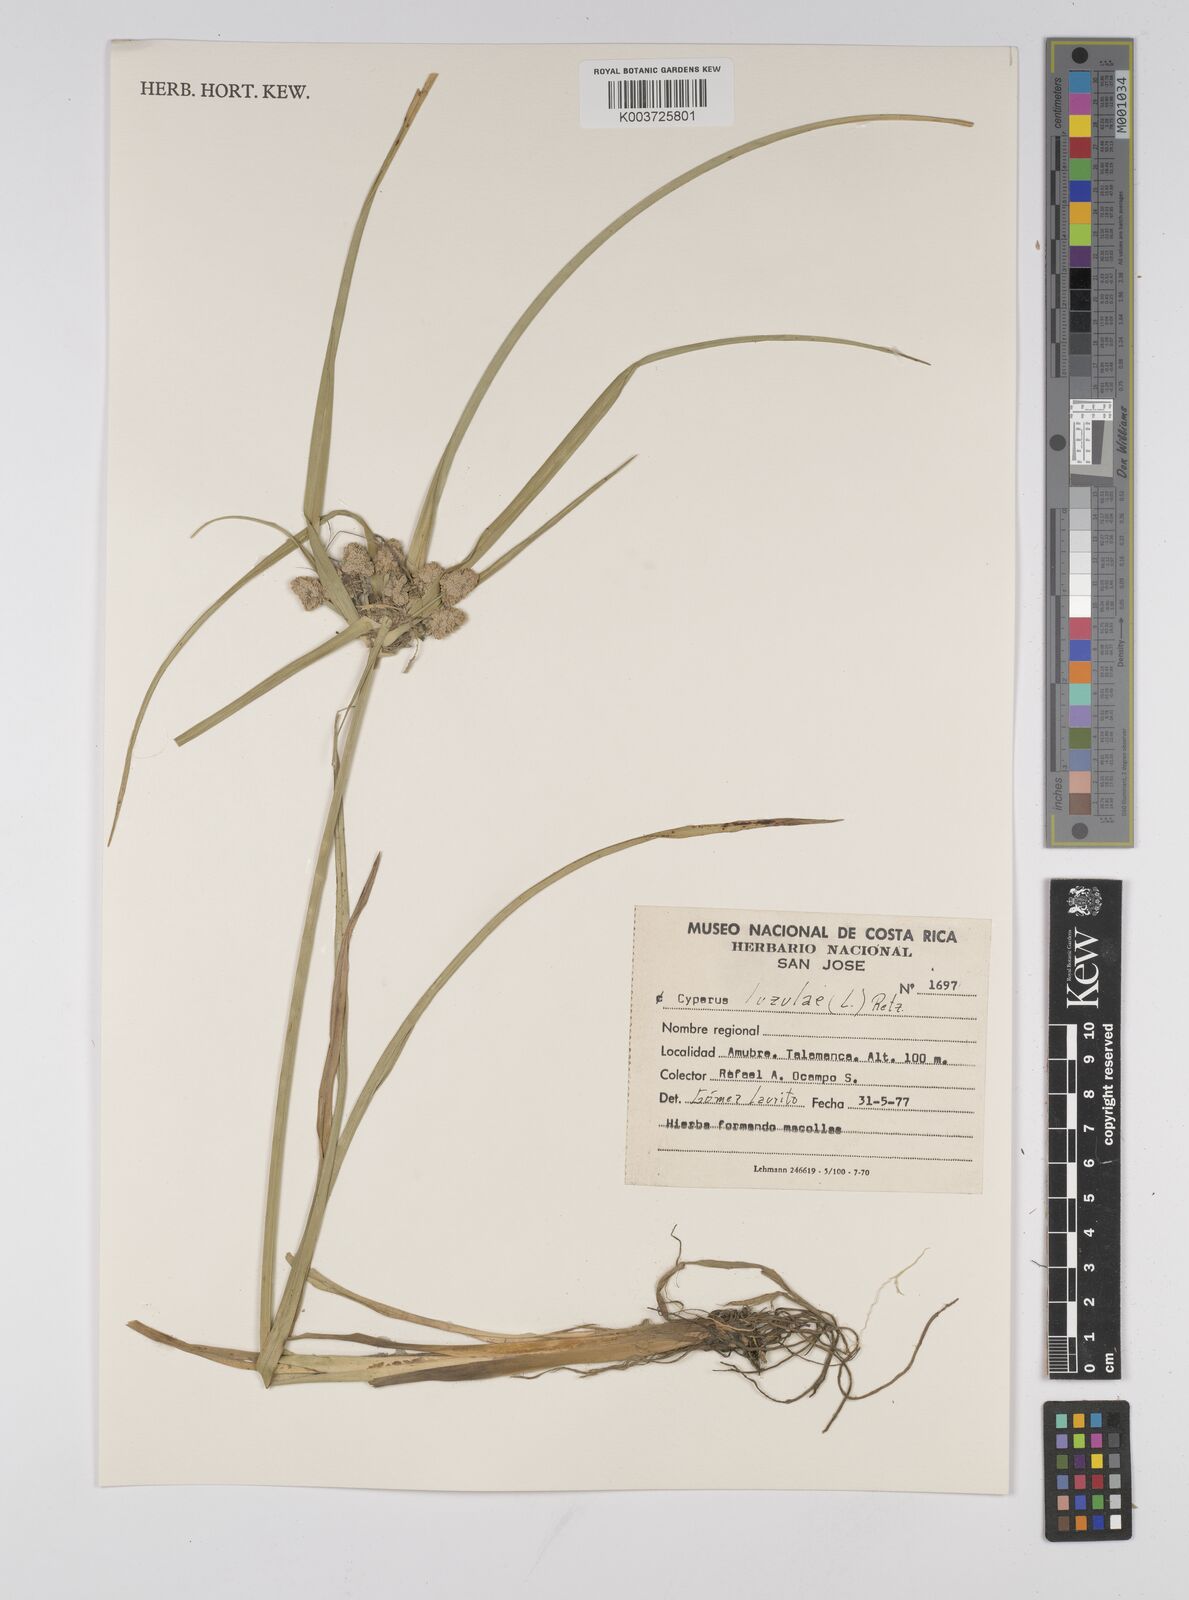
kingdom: Plantae
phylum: Tracheophyta
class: Liliopsida
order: Poales
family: Cyperaceae
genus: Cyperus
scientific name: Cyperus luzulae
